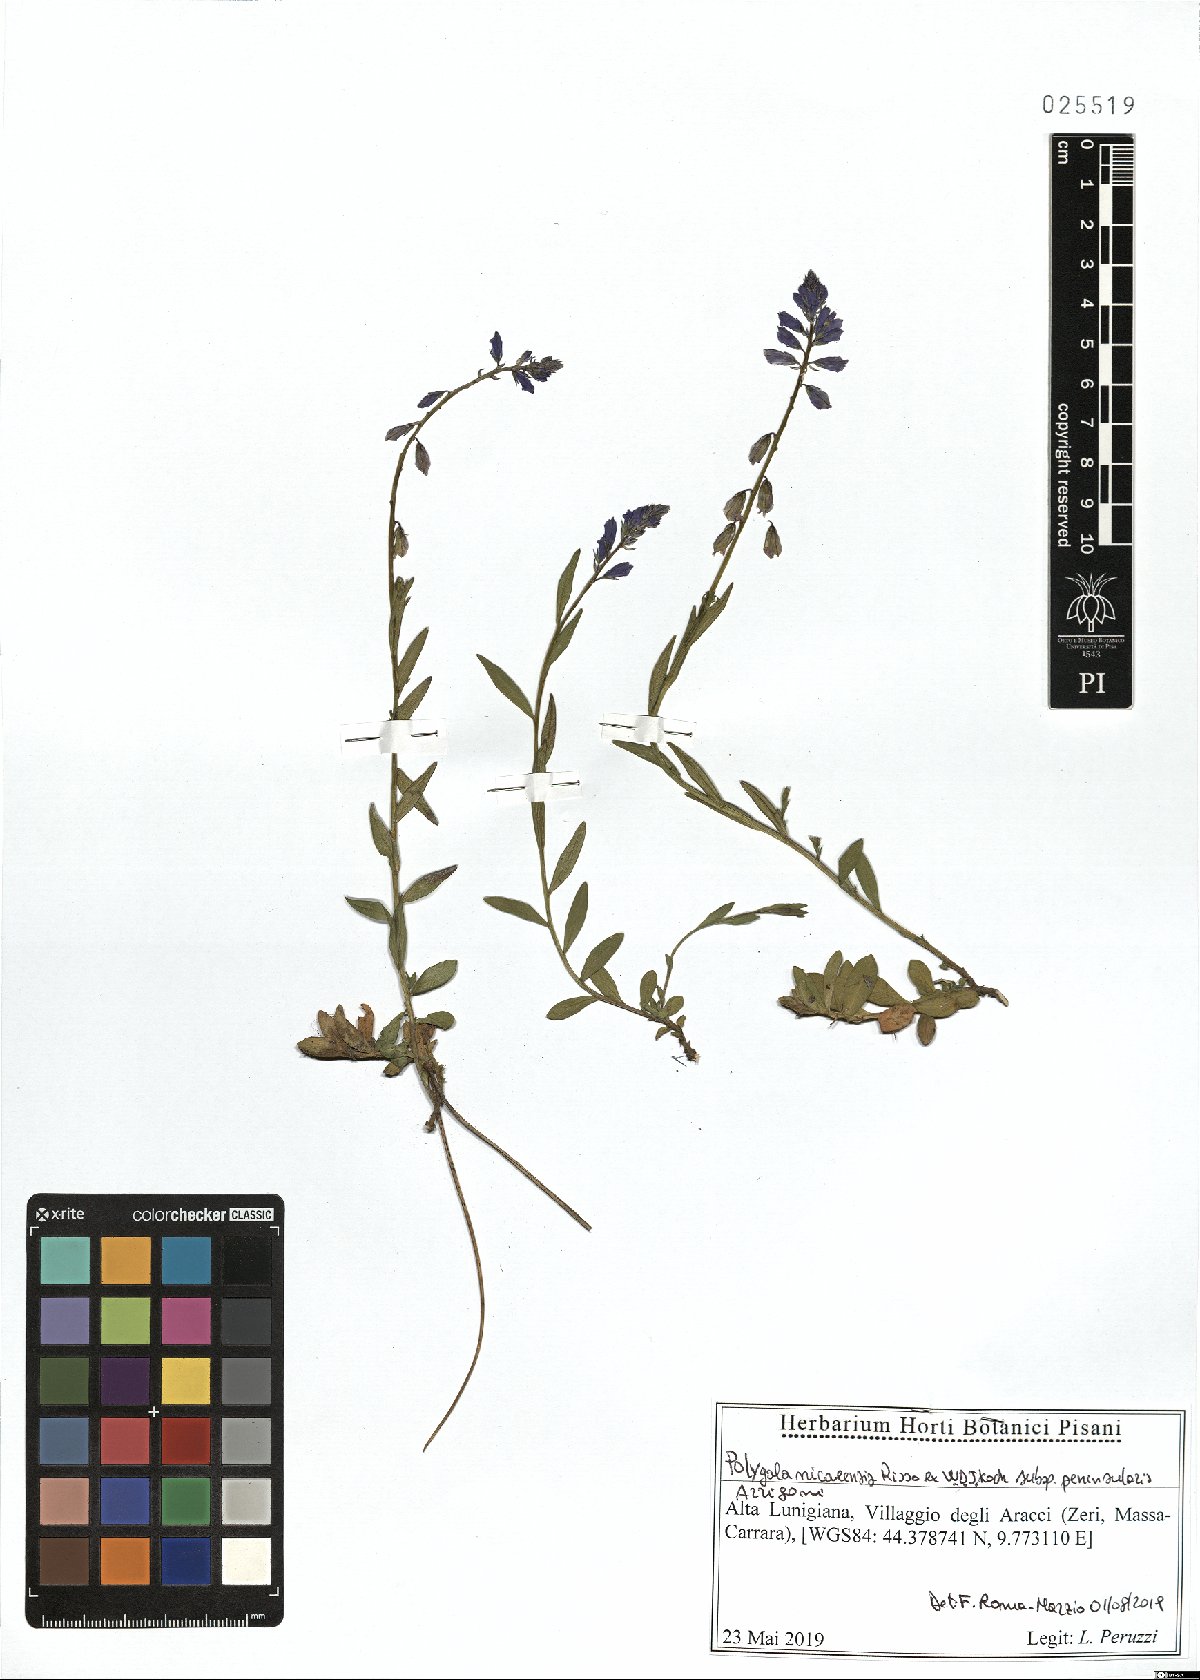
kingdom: Plantae
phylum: Tracheophyta
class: Magnoliopsida
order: Fabales
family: Polygalaceae
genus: Polygala
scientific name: Polygala nicaeensis
